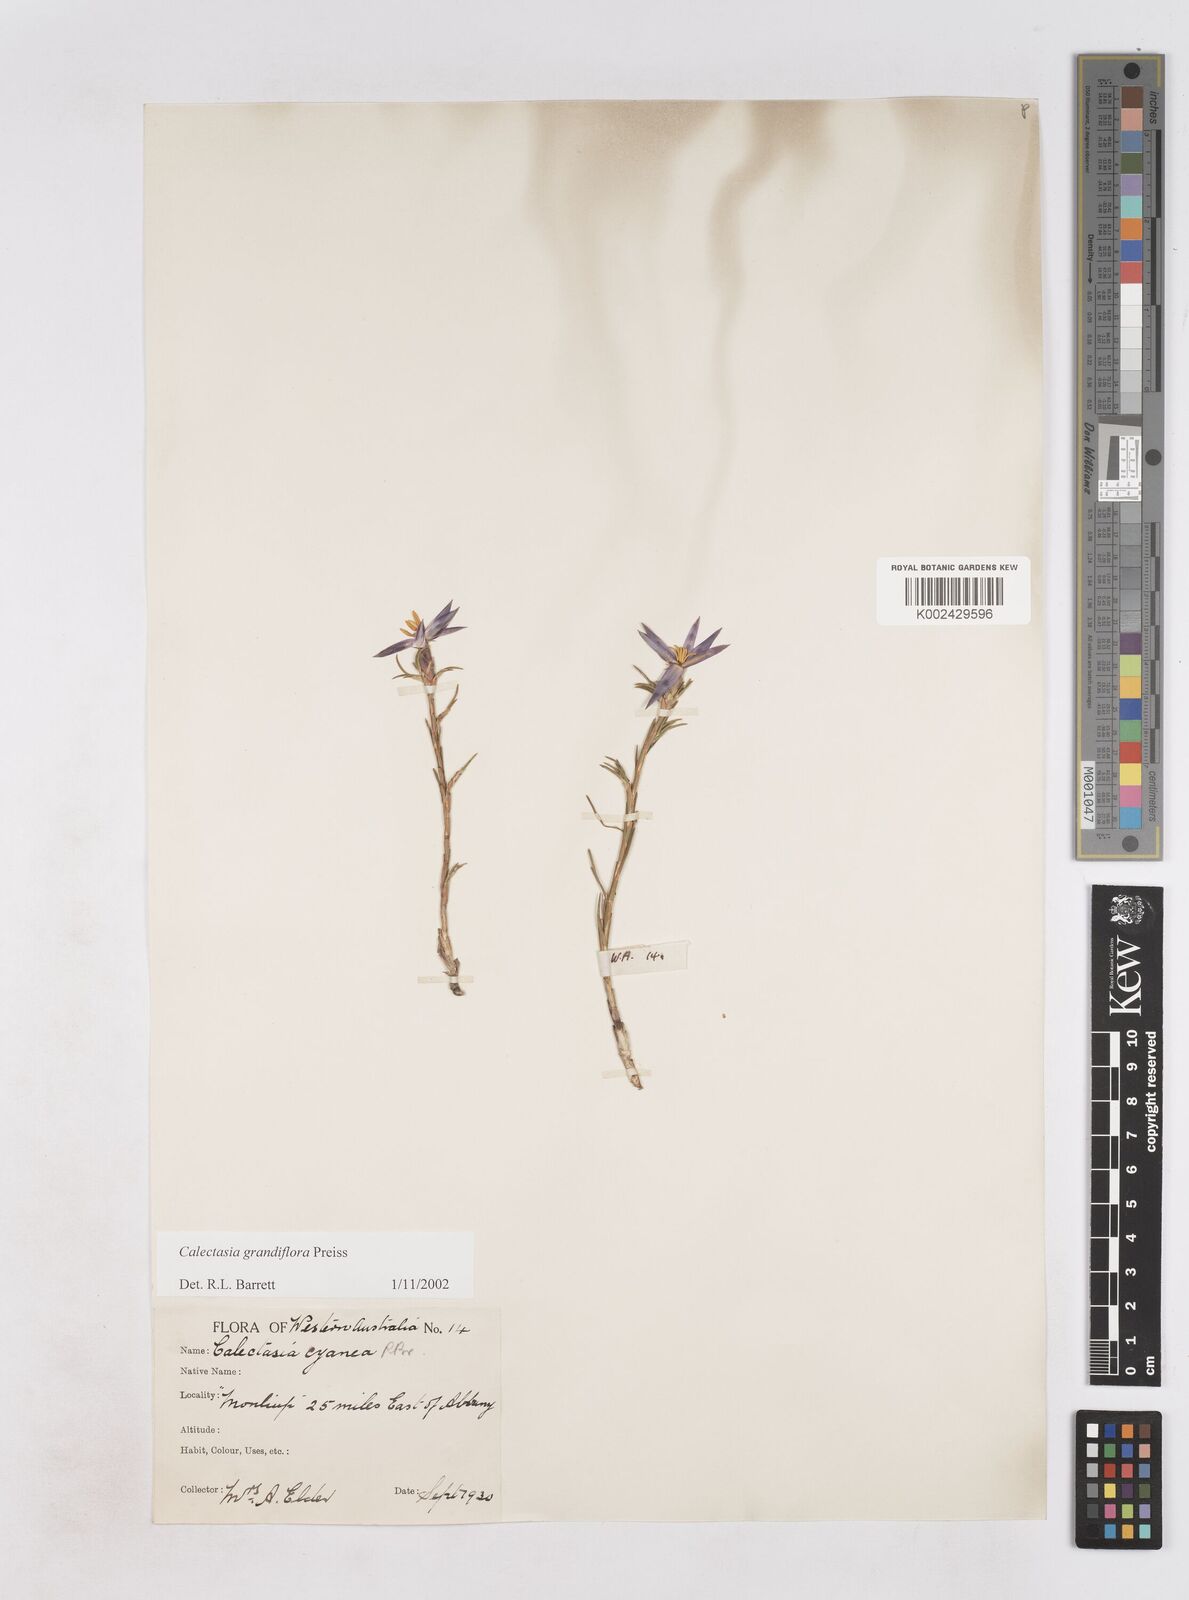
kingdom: Plantae
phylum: Tracheophyta
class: Liliopsida
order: Arecales
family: Dasypogonaceae
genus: Calectasia
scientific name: Calectasia grandiflora
